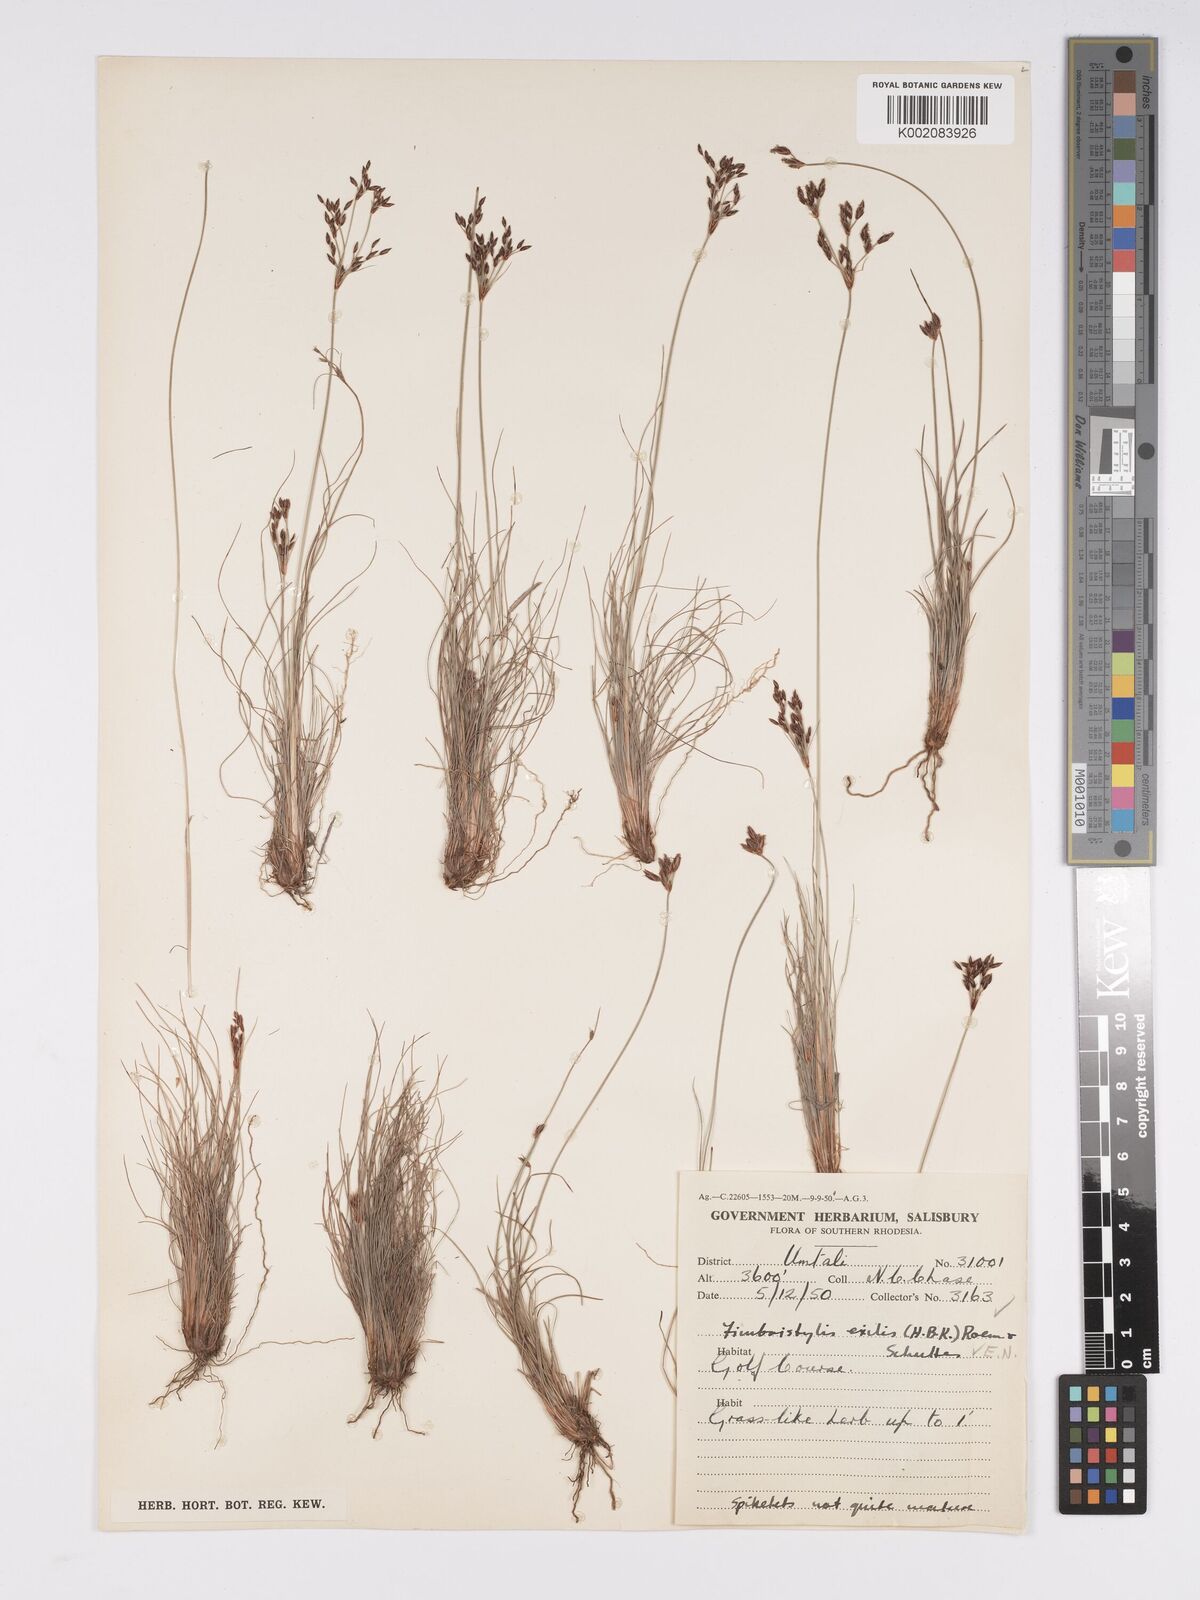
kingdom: Plantae
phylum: Tracheophyta
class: Liliopsida
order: Poales
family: Cyperaceae
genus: Bulbostylis
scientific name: Bulbostylis hispidula
